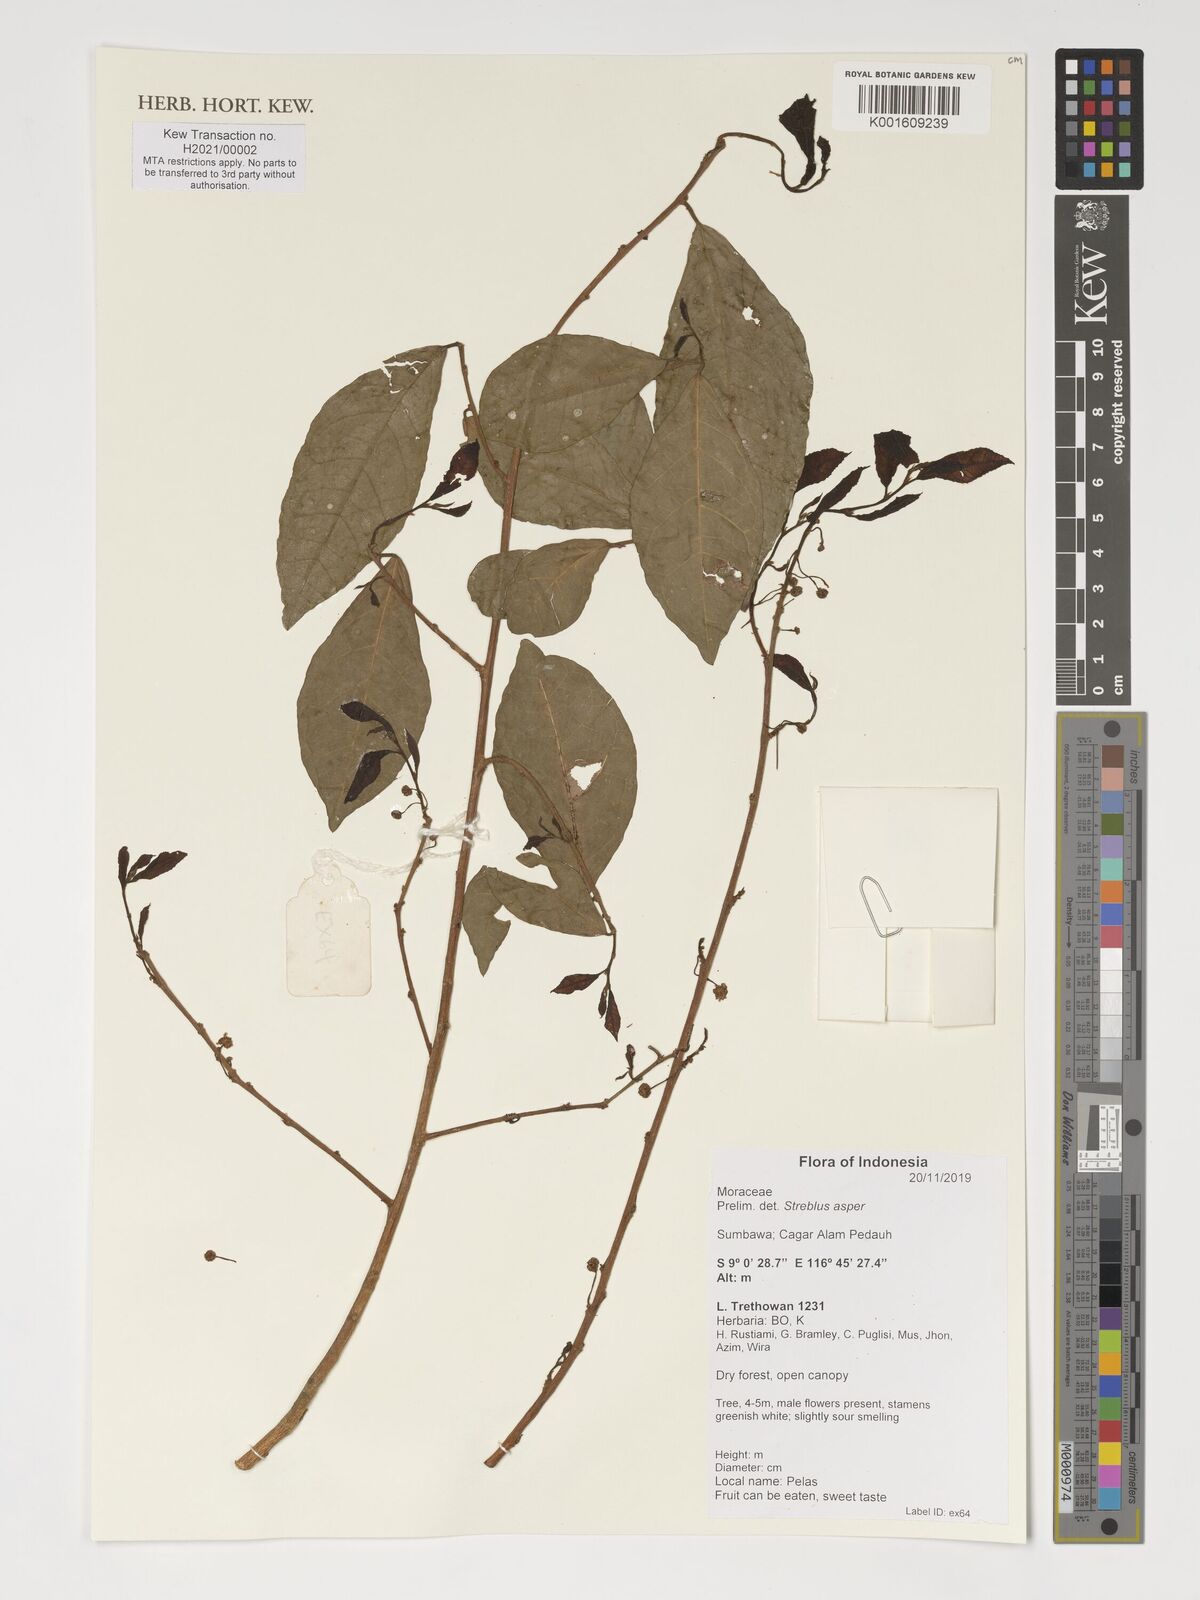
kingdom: Plantae
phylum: Tracheophyta
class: Magnoliopsida
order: Rosales
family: Moraceae
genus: Streblus
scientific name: Streblus asper
